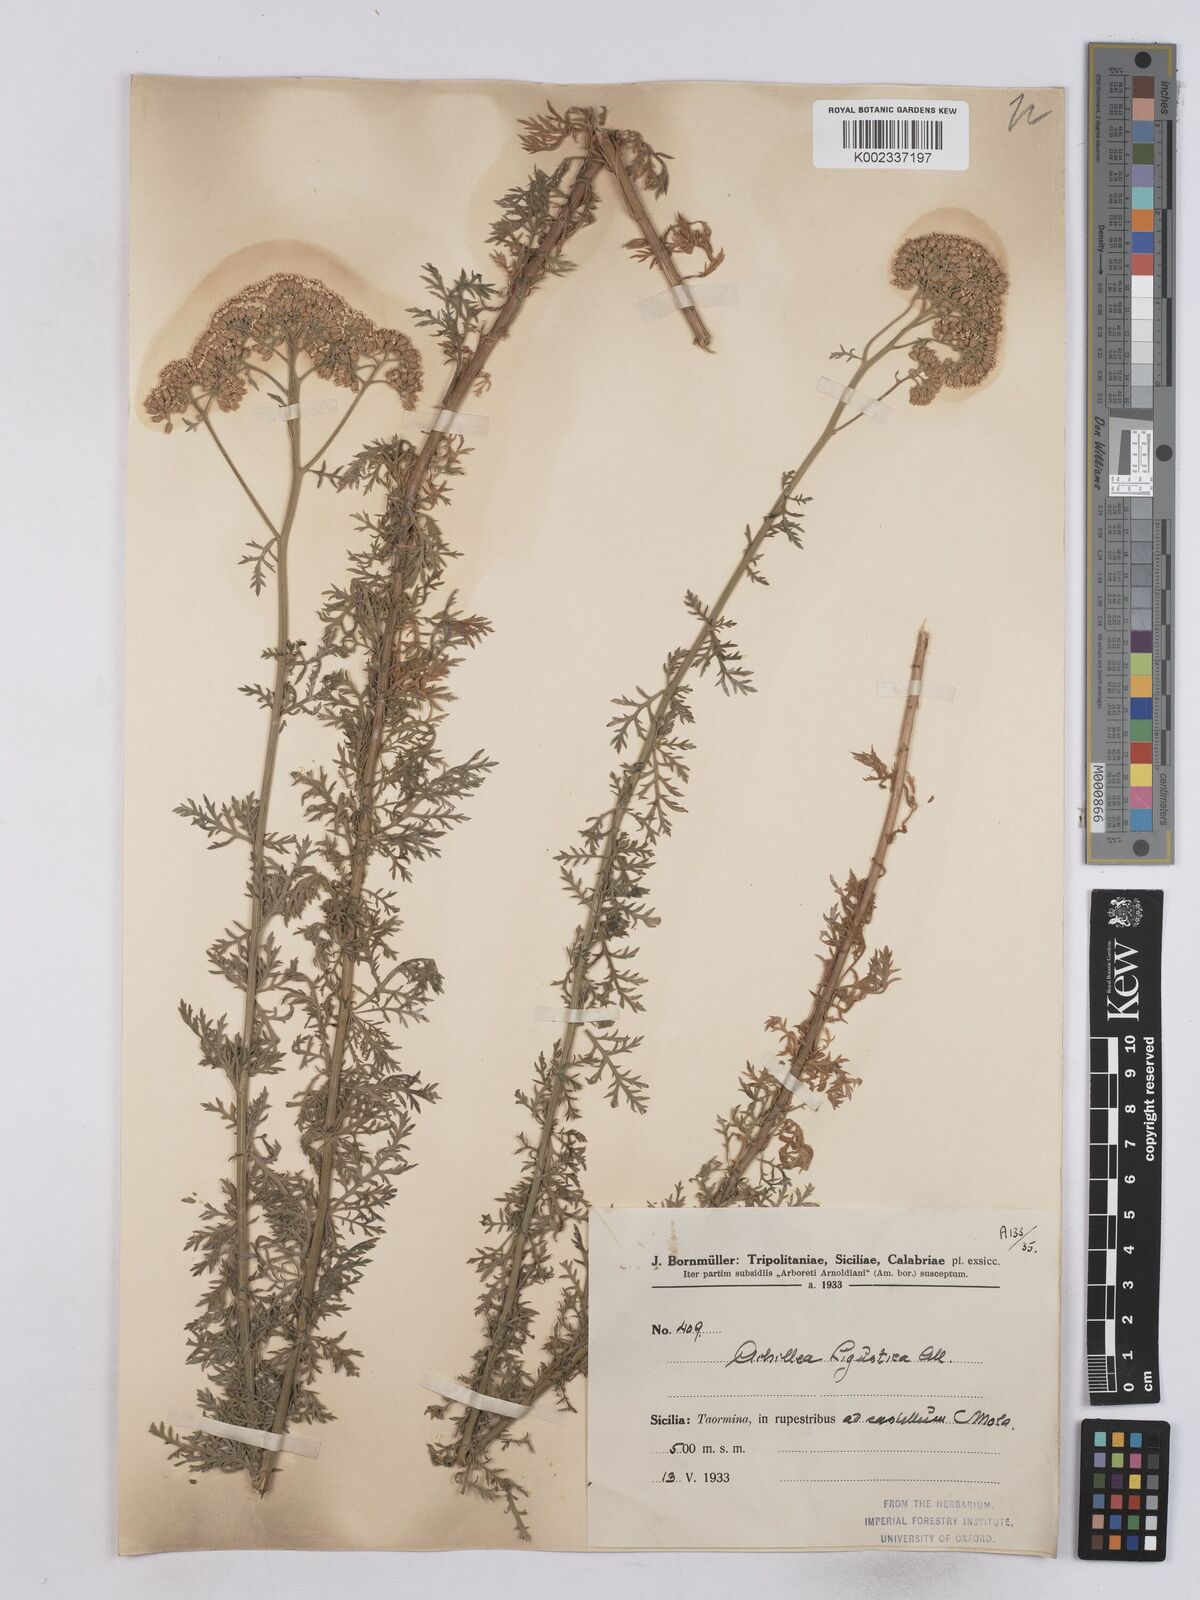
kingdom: Plantae
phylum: Tracheophyta
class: Magnoliopsida
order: Asterales
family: Asteraceae
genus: Achillea
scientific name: Achillea ligustica
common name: Southern yarrow
